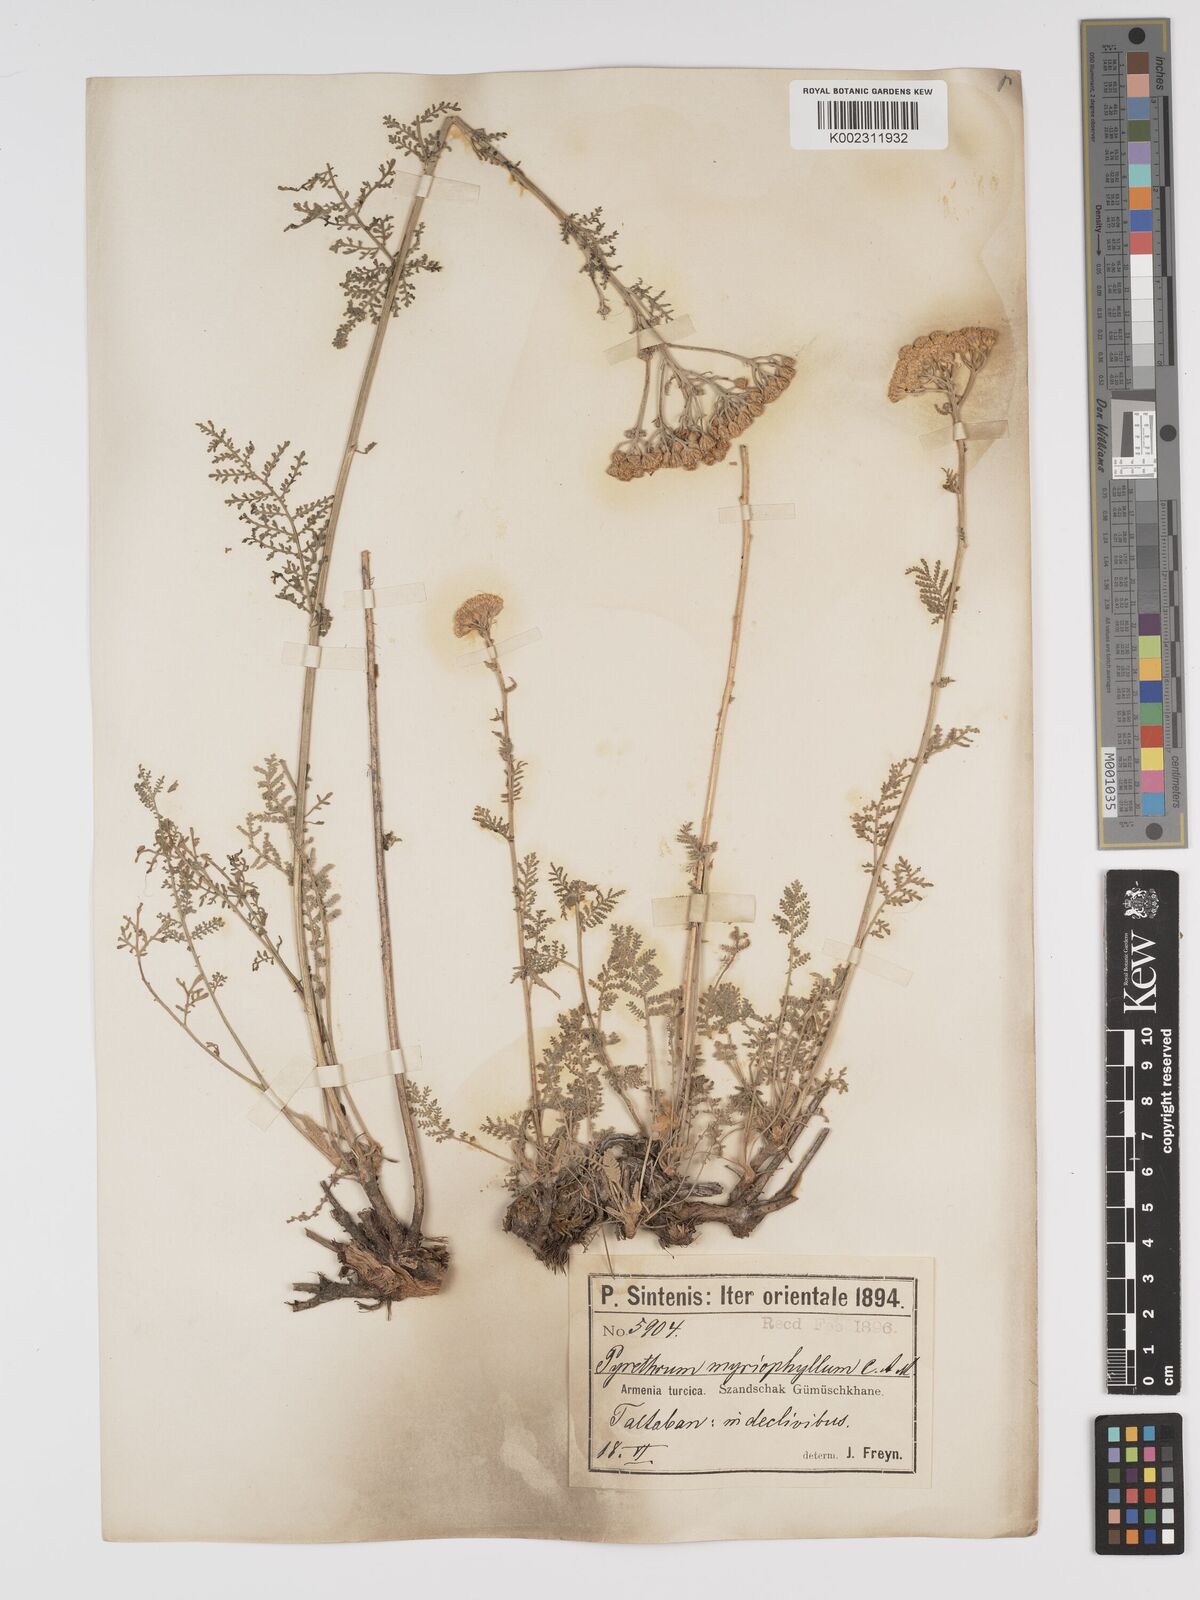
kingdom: Plantae
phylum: Tracheophyta
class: Magnoliopsida
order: Asterales
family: Asteraceae
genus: Tanacetum
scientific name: Tanacetum polycephalum
